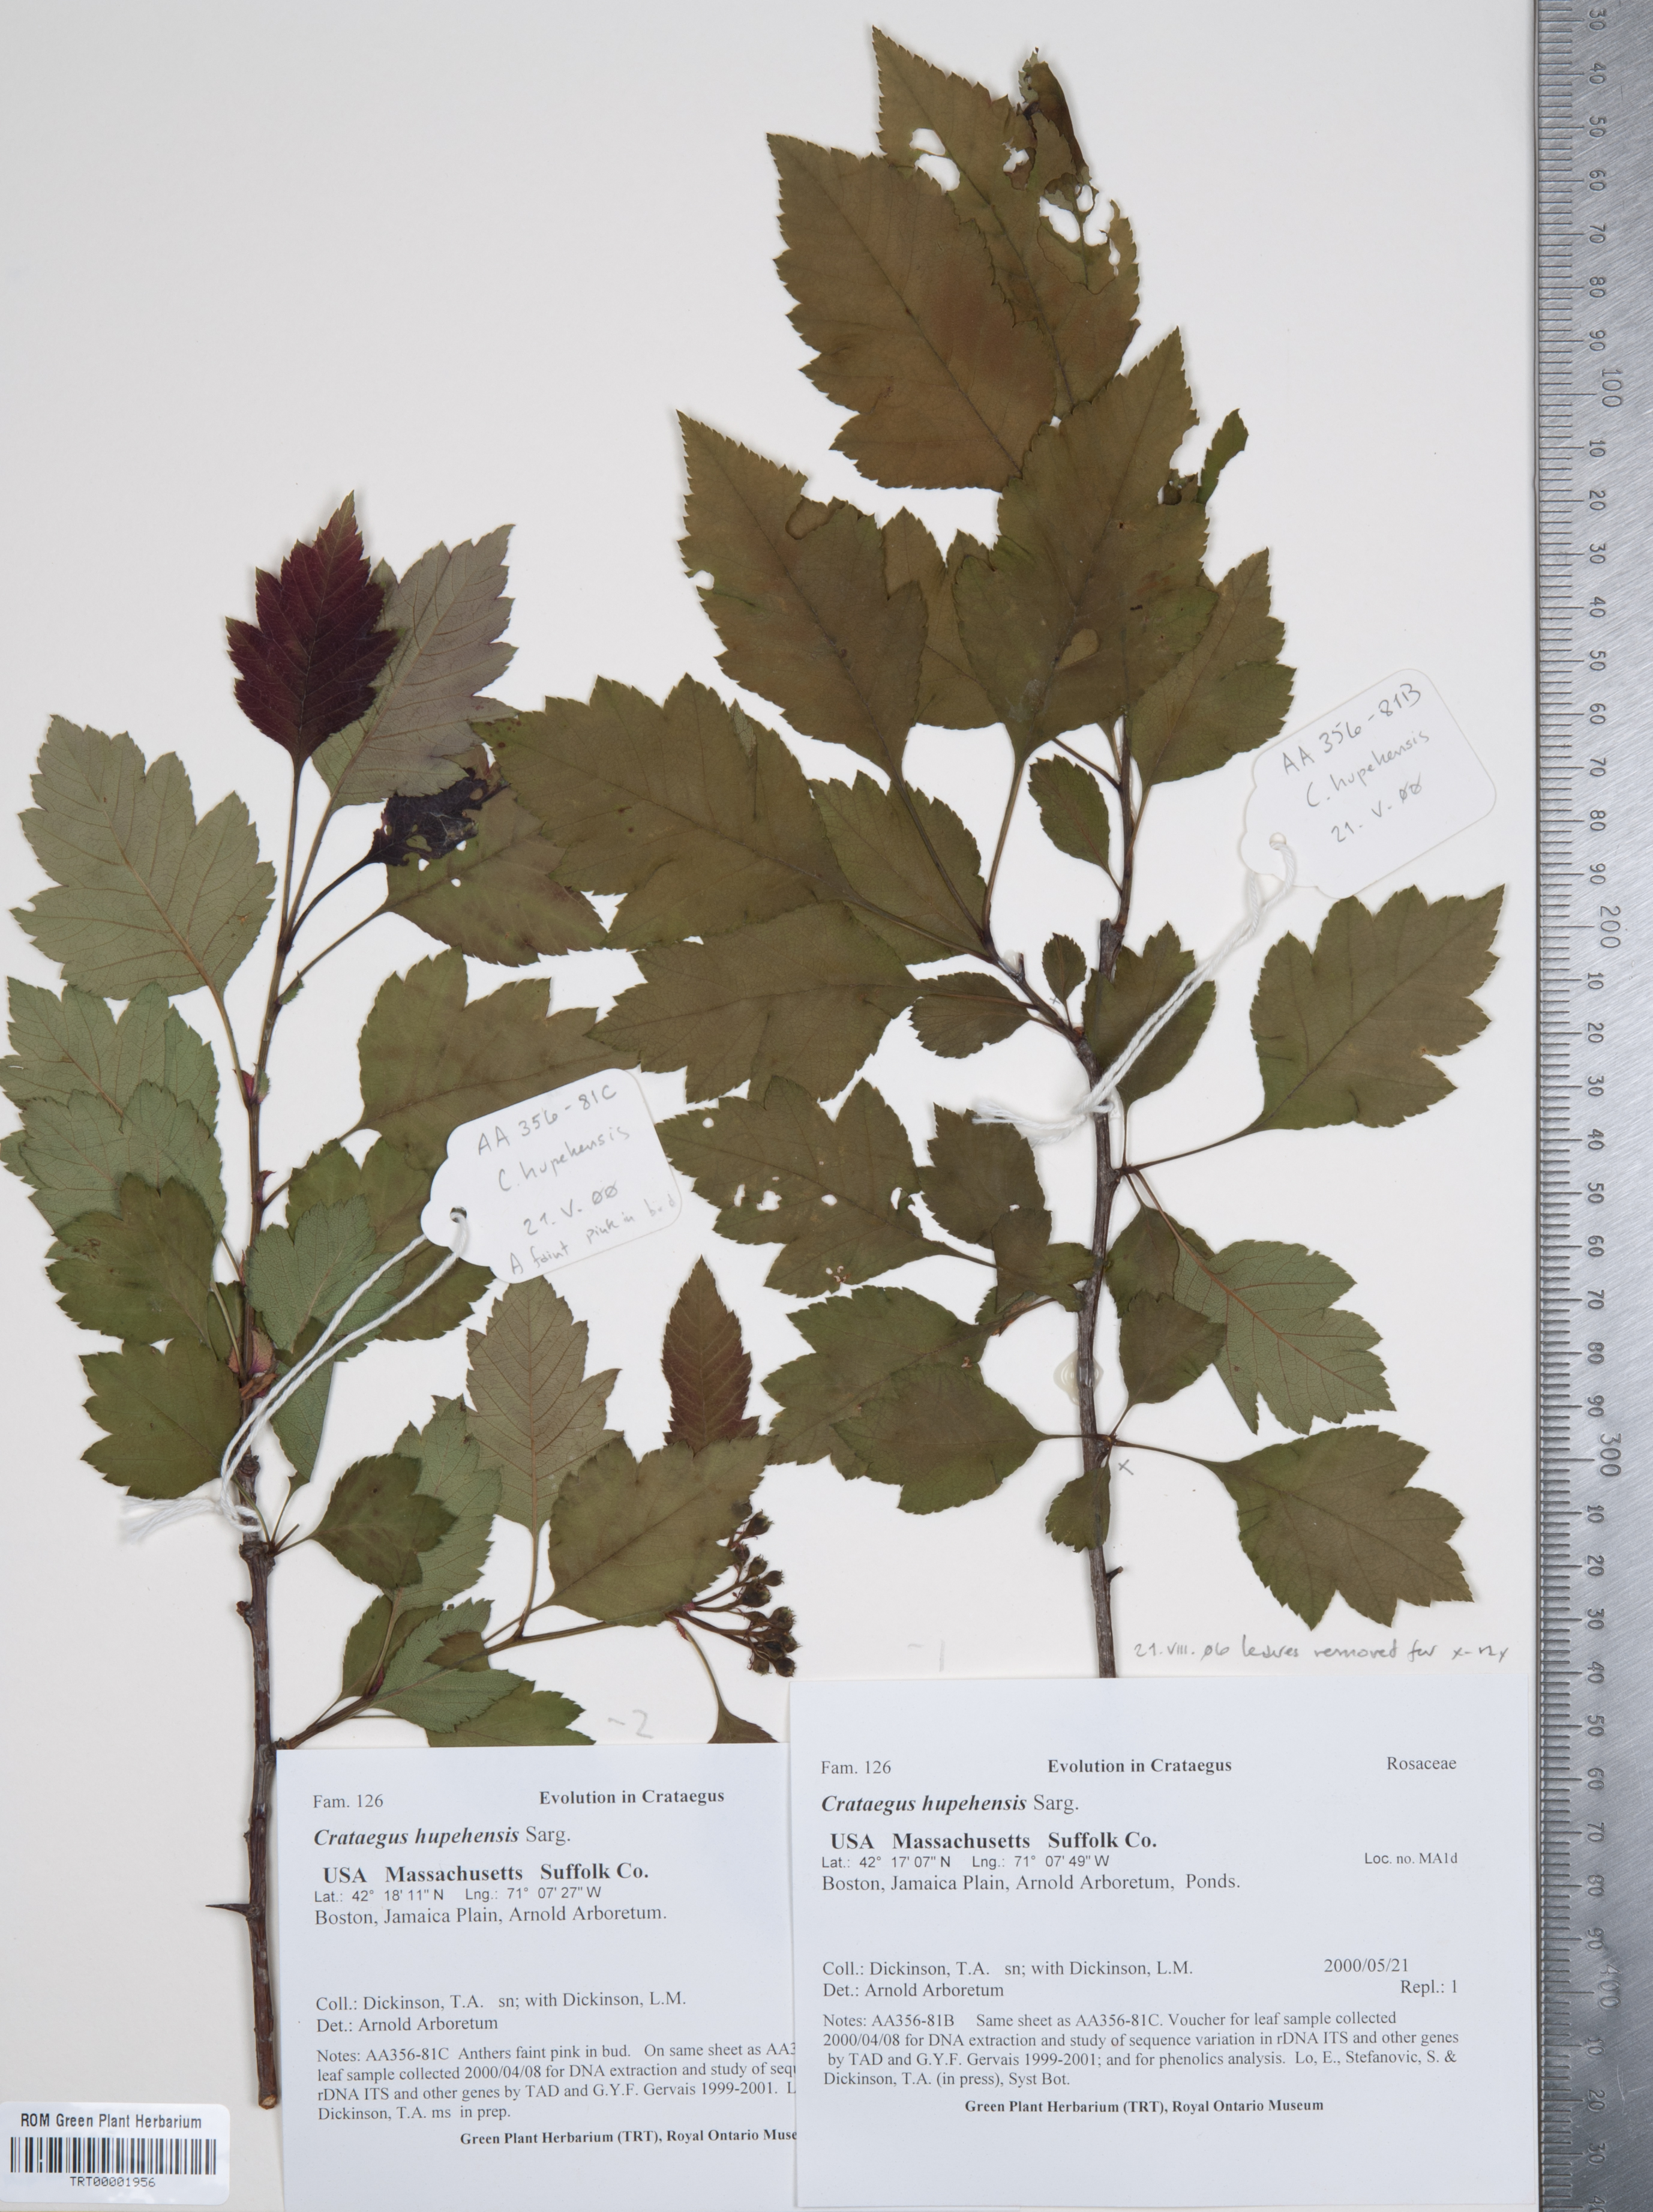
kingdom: Plantae
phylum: Tracheophyta
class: Magnoliopsida
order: Rosales
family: Rosaceae
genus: Crataegus
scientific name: Crataegus hupehensis
